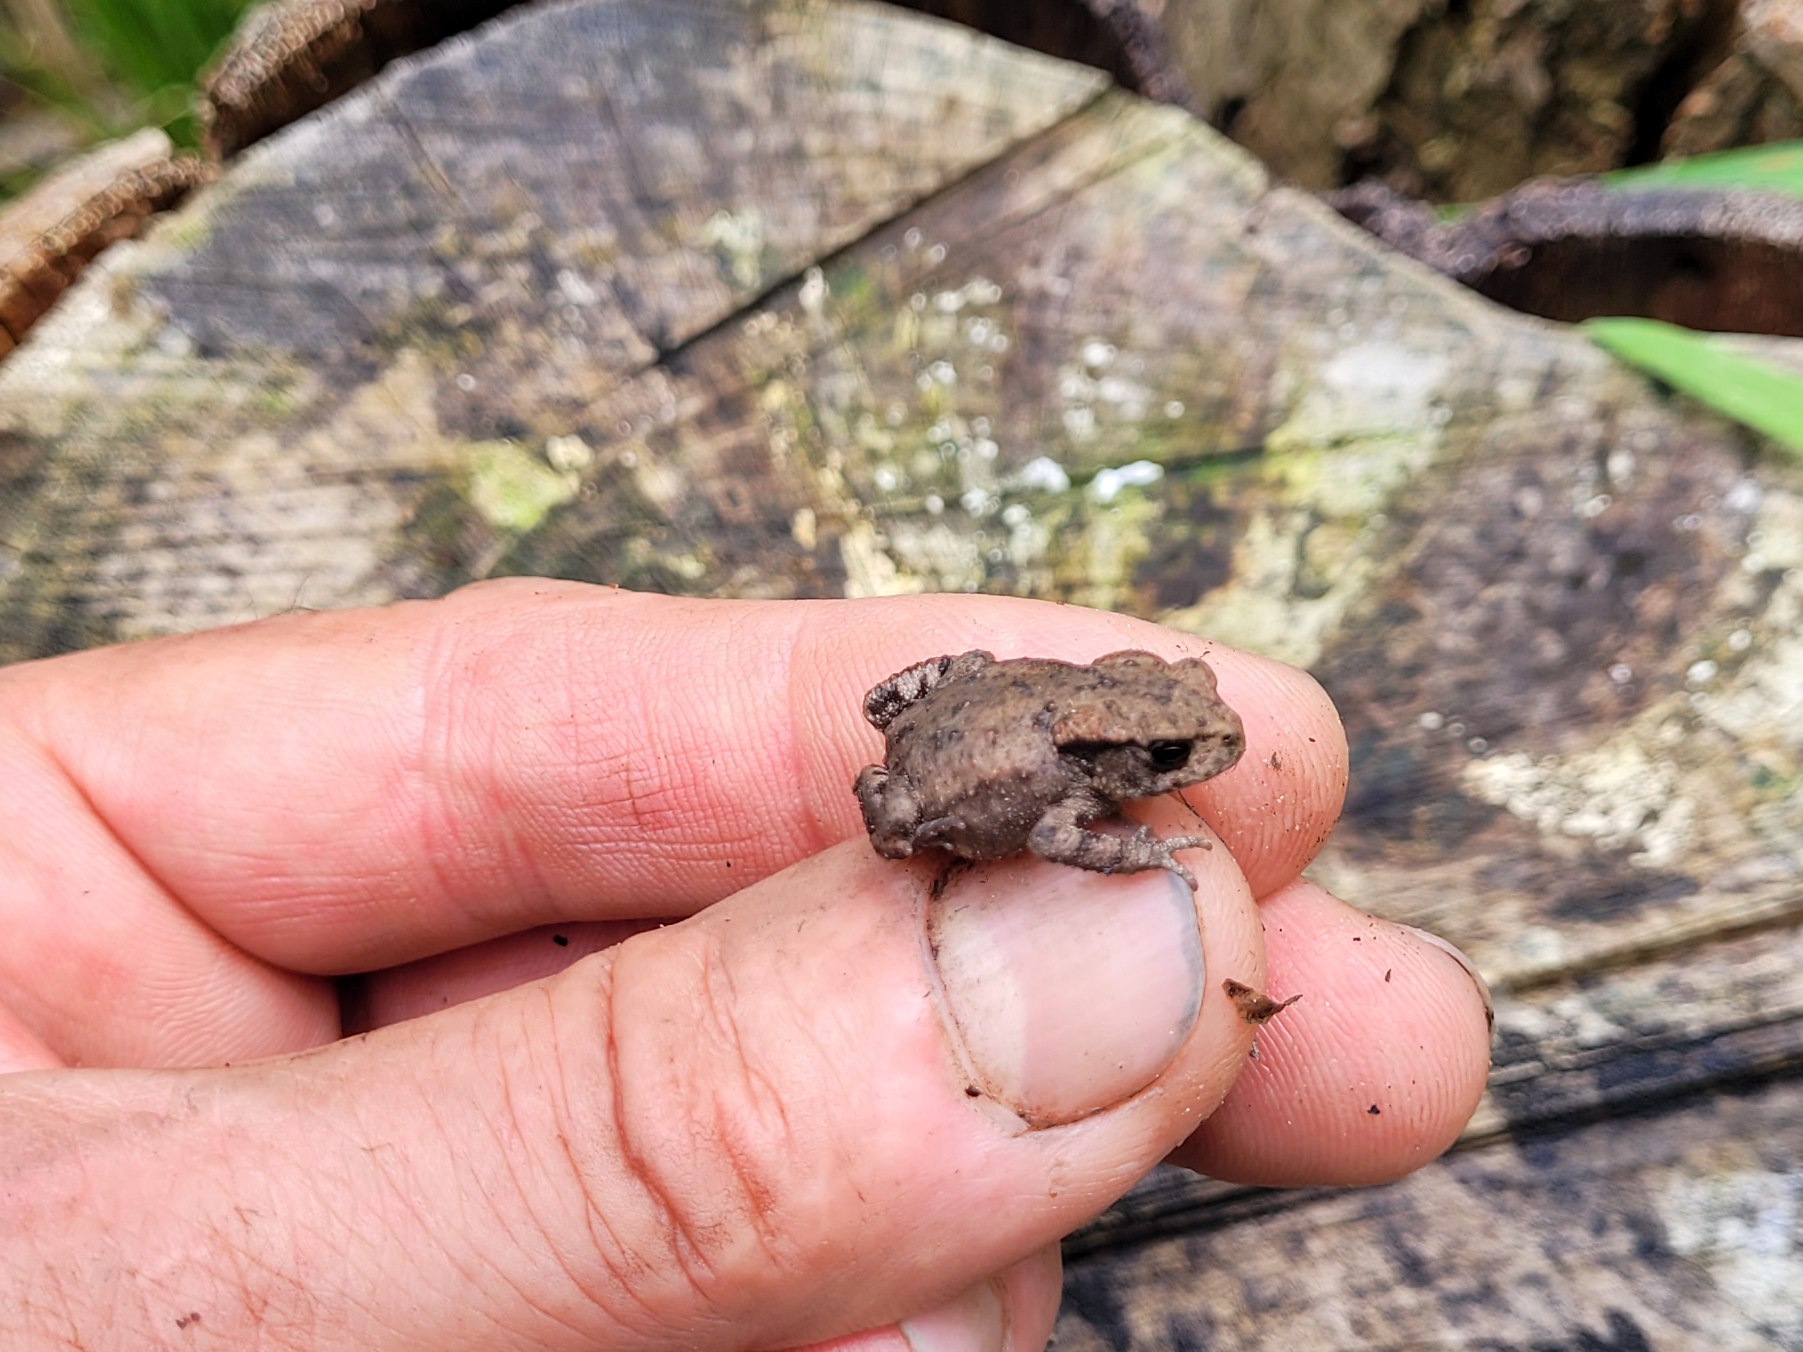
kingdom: Animalia
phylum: Chordata
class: Amphibia
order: Anura
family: Bufonidae
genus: Bufo
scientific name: Bufo bufo
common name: Skrubtudse
